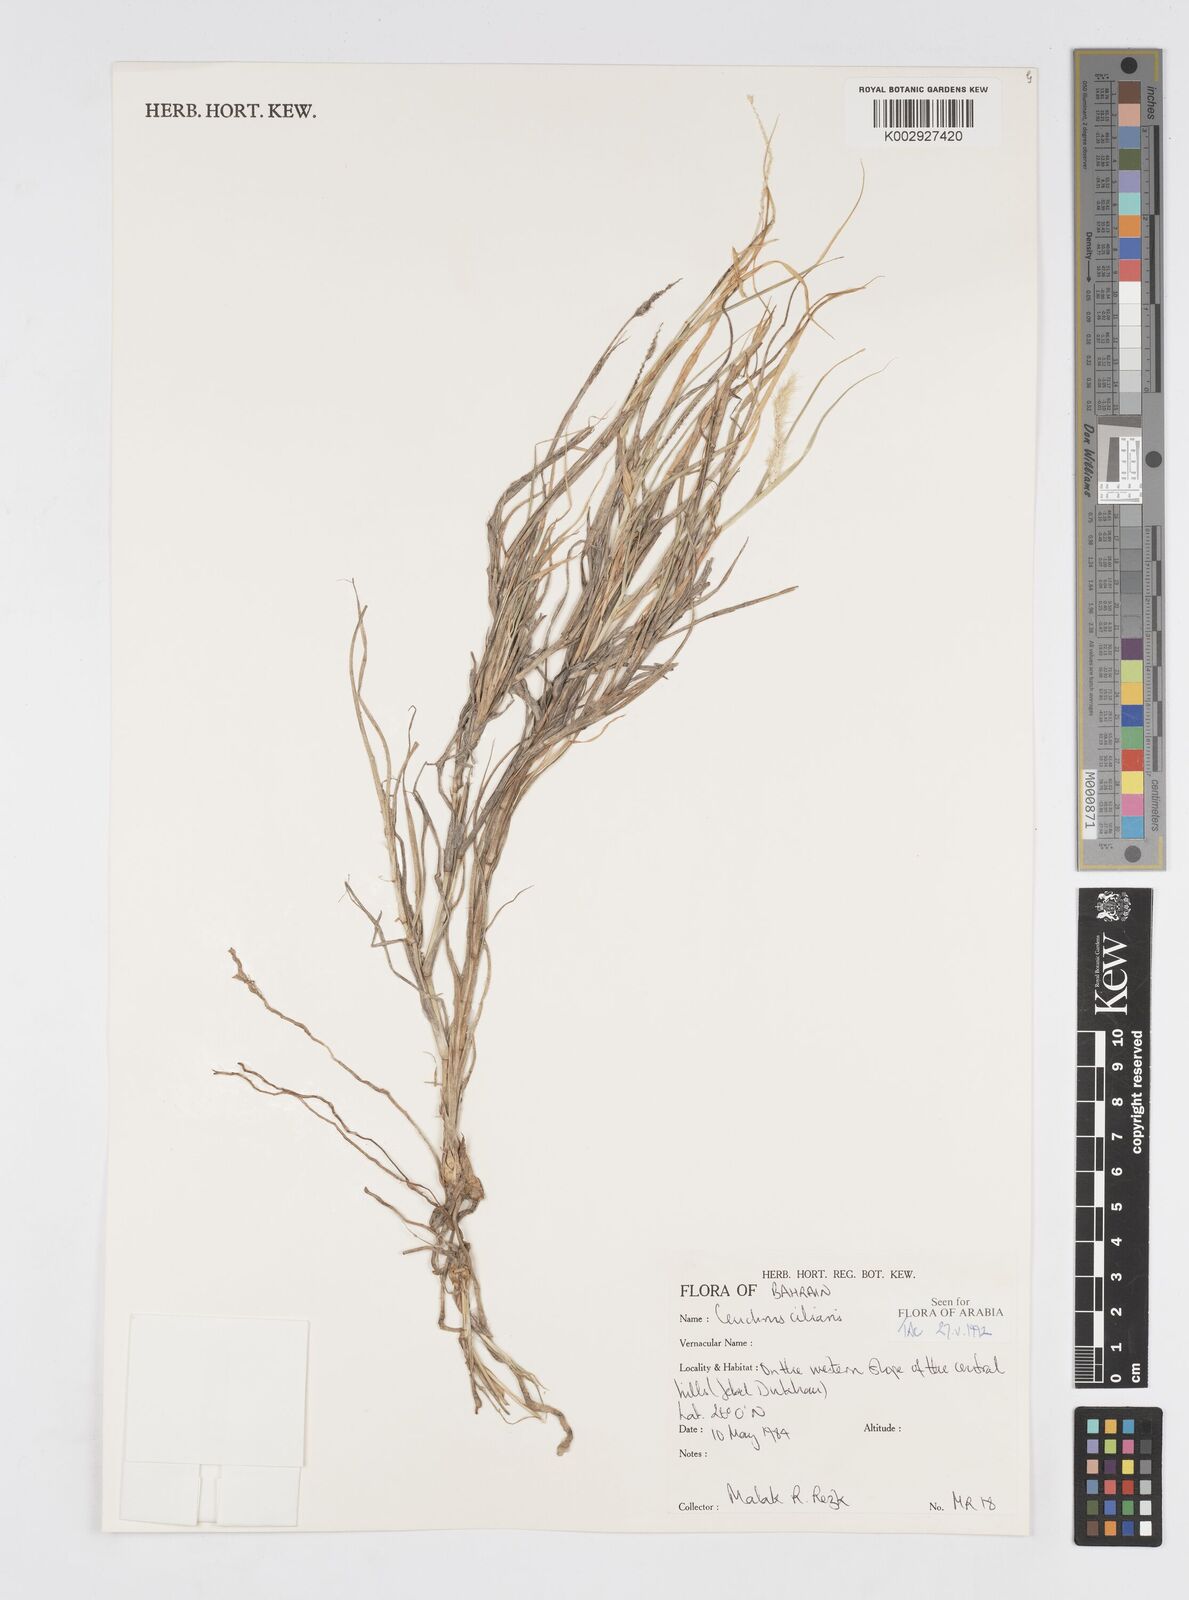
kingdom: Plantae
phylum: Tracheophyta
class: Liliopsida
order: Poales
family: Poaceae
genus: Cenchrus
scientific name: Cenchrus
